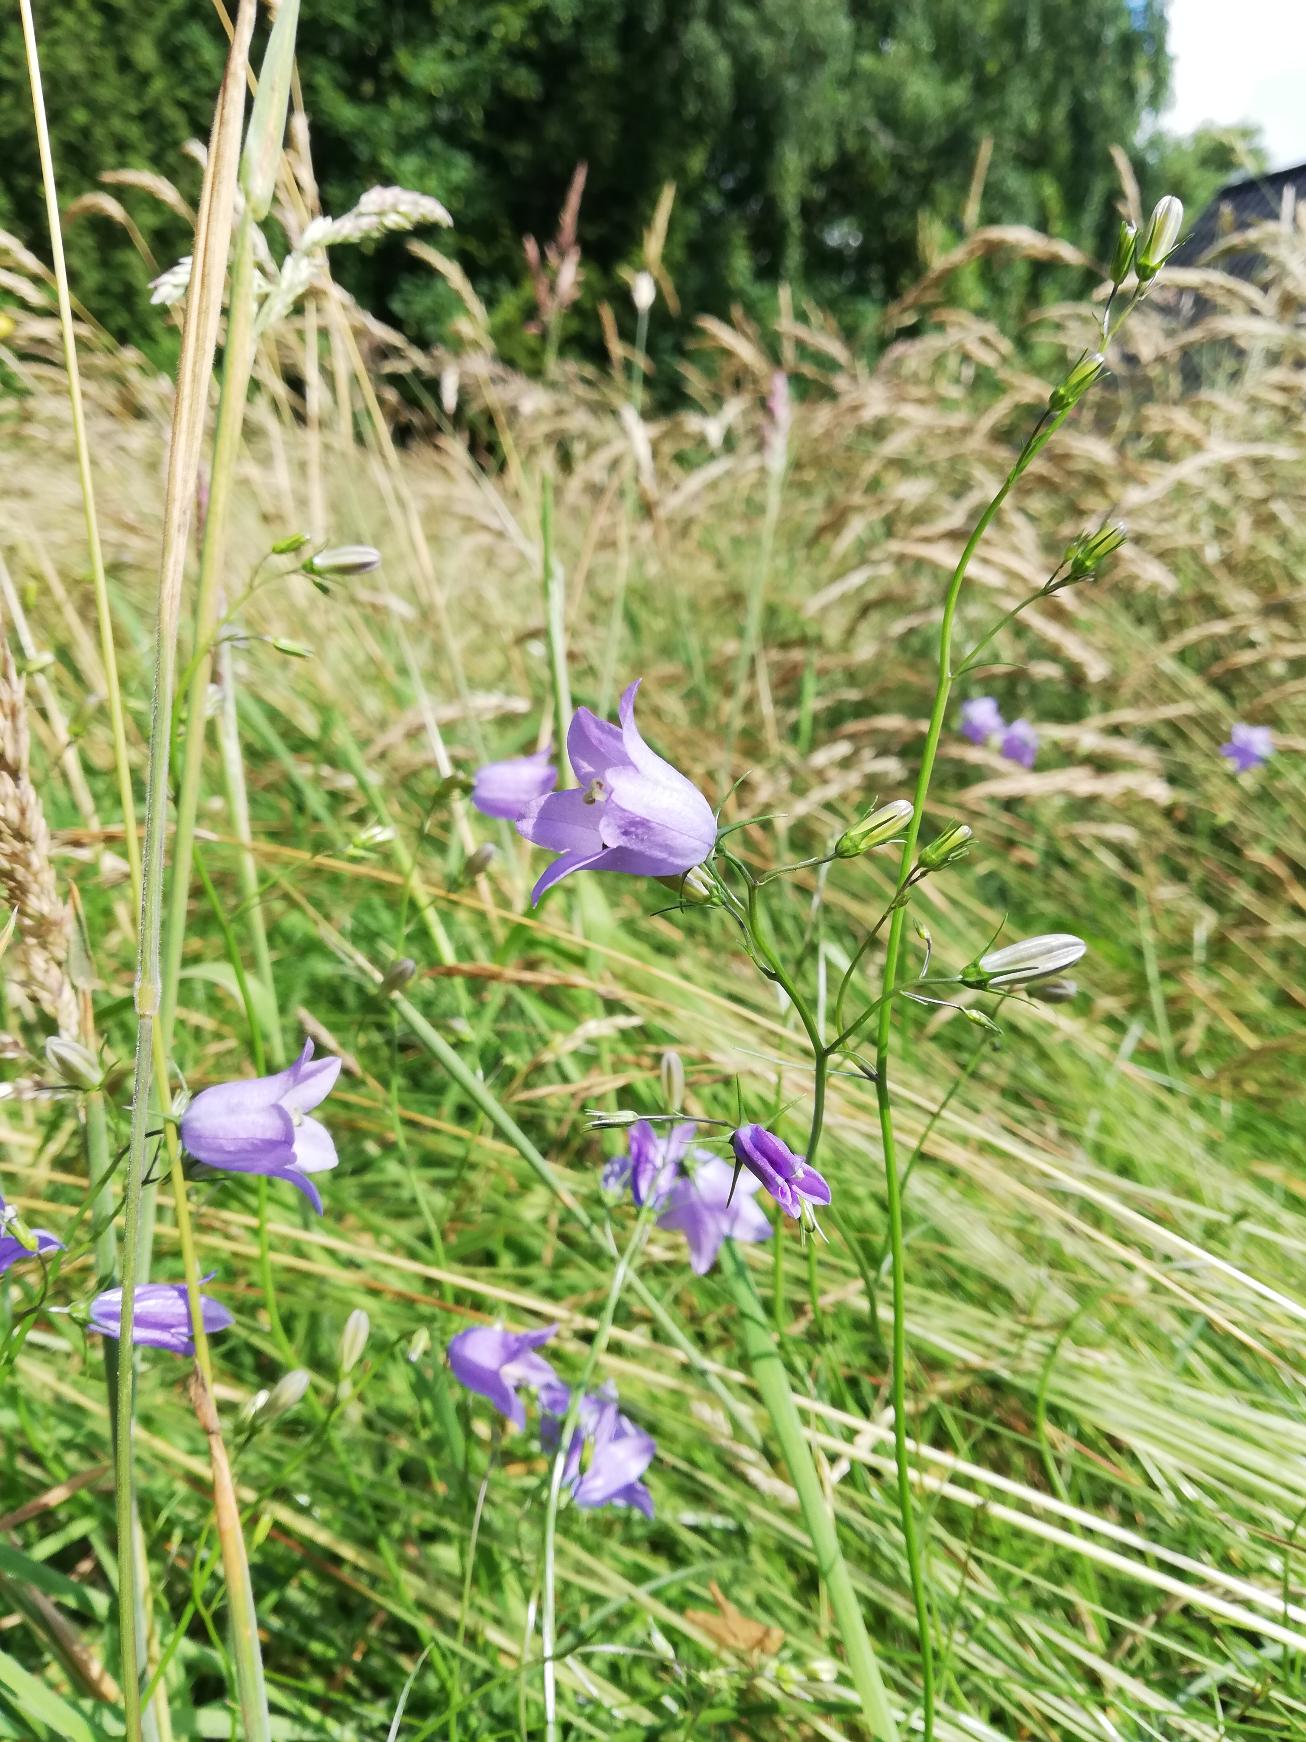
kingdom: Plantae
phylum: Tracheophyta
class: Magnoliopsida
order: Asterales
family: Campanulaceae
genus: Campanula
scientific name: Campanula rotundifolia
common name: Liden klokke
